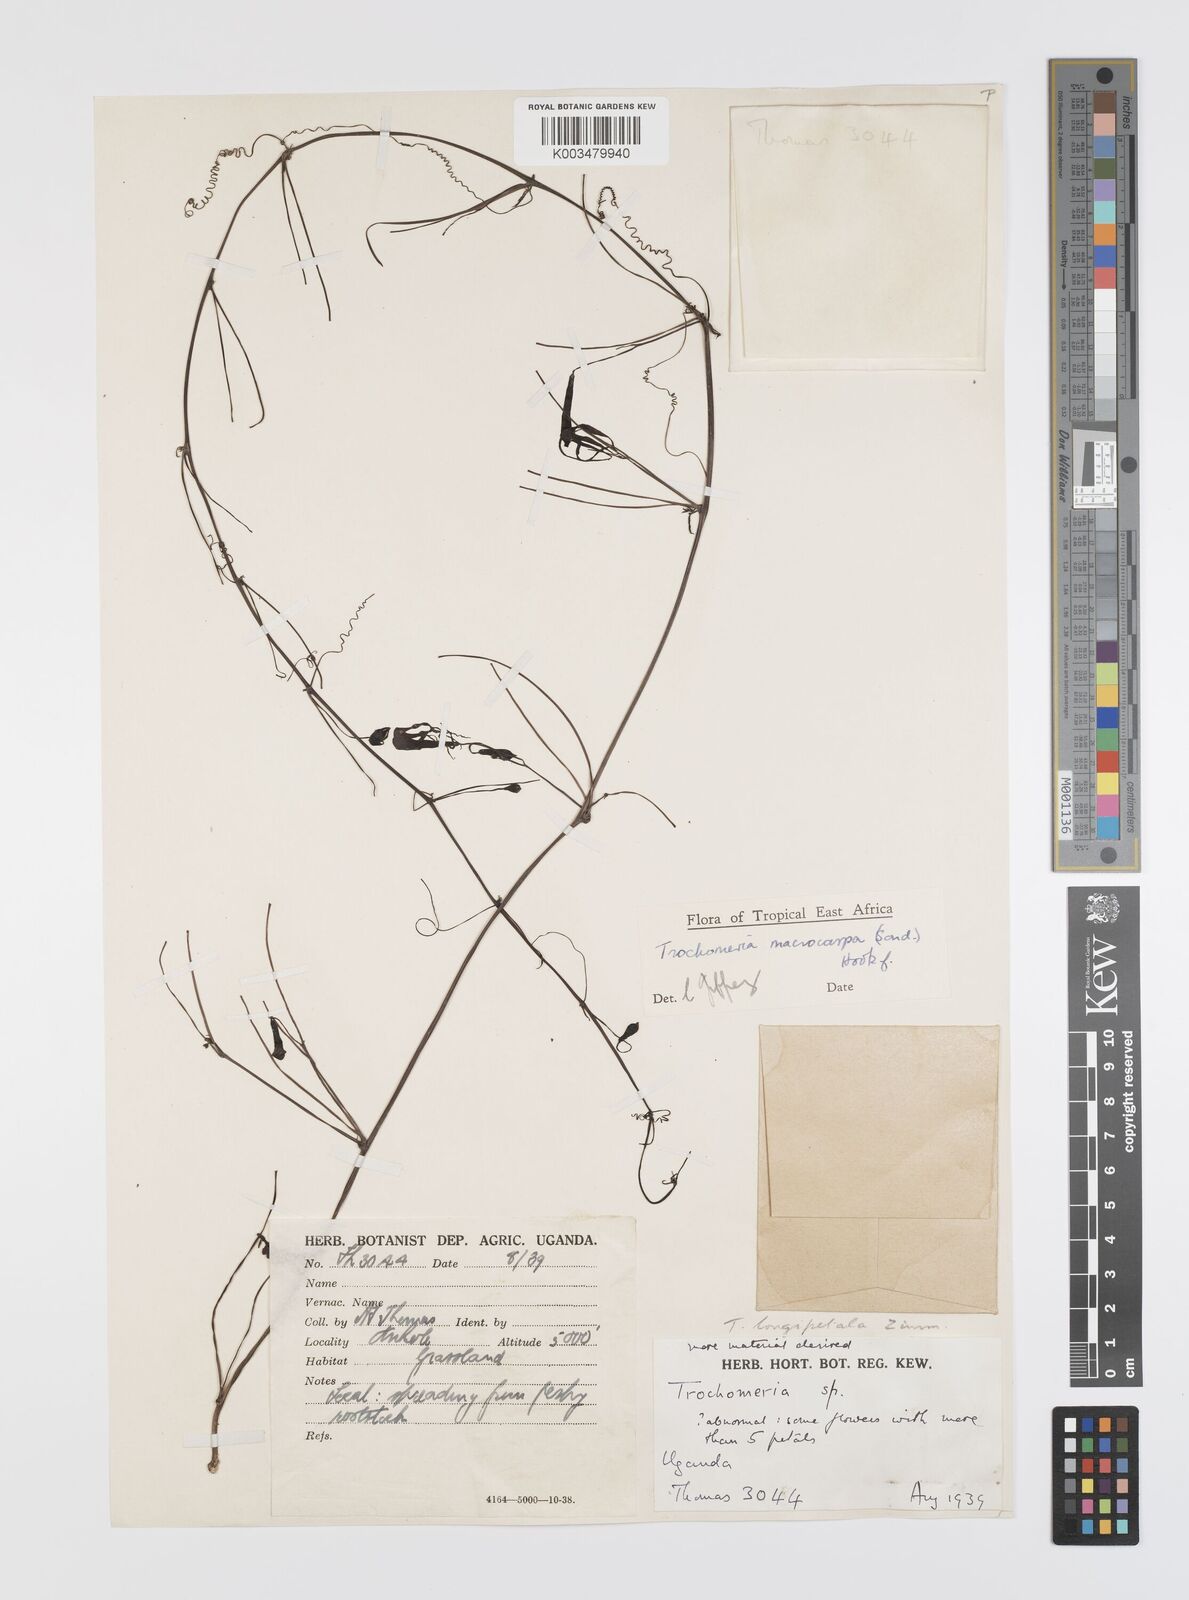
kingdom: Plantae
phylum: Tracheophyta
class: Magnoliopsida
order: Cucurbitales
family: Cucurbitaceae
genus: Trochomeria
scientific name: Trochomeria macrocarpa
